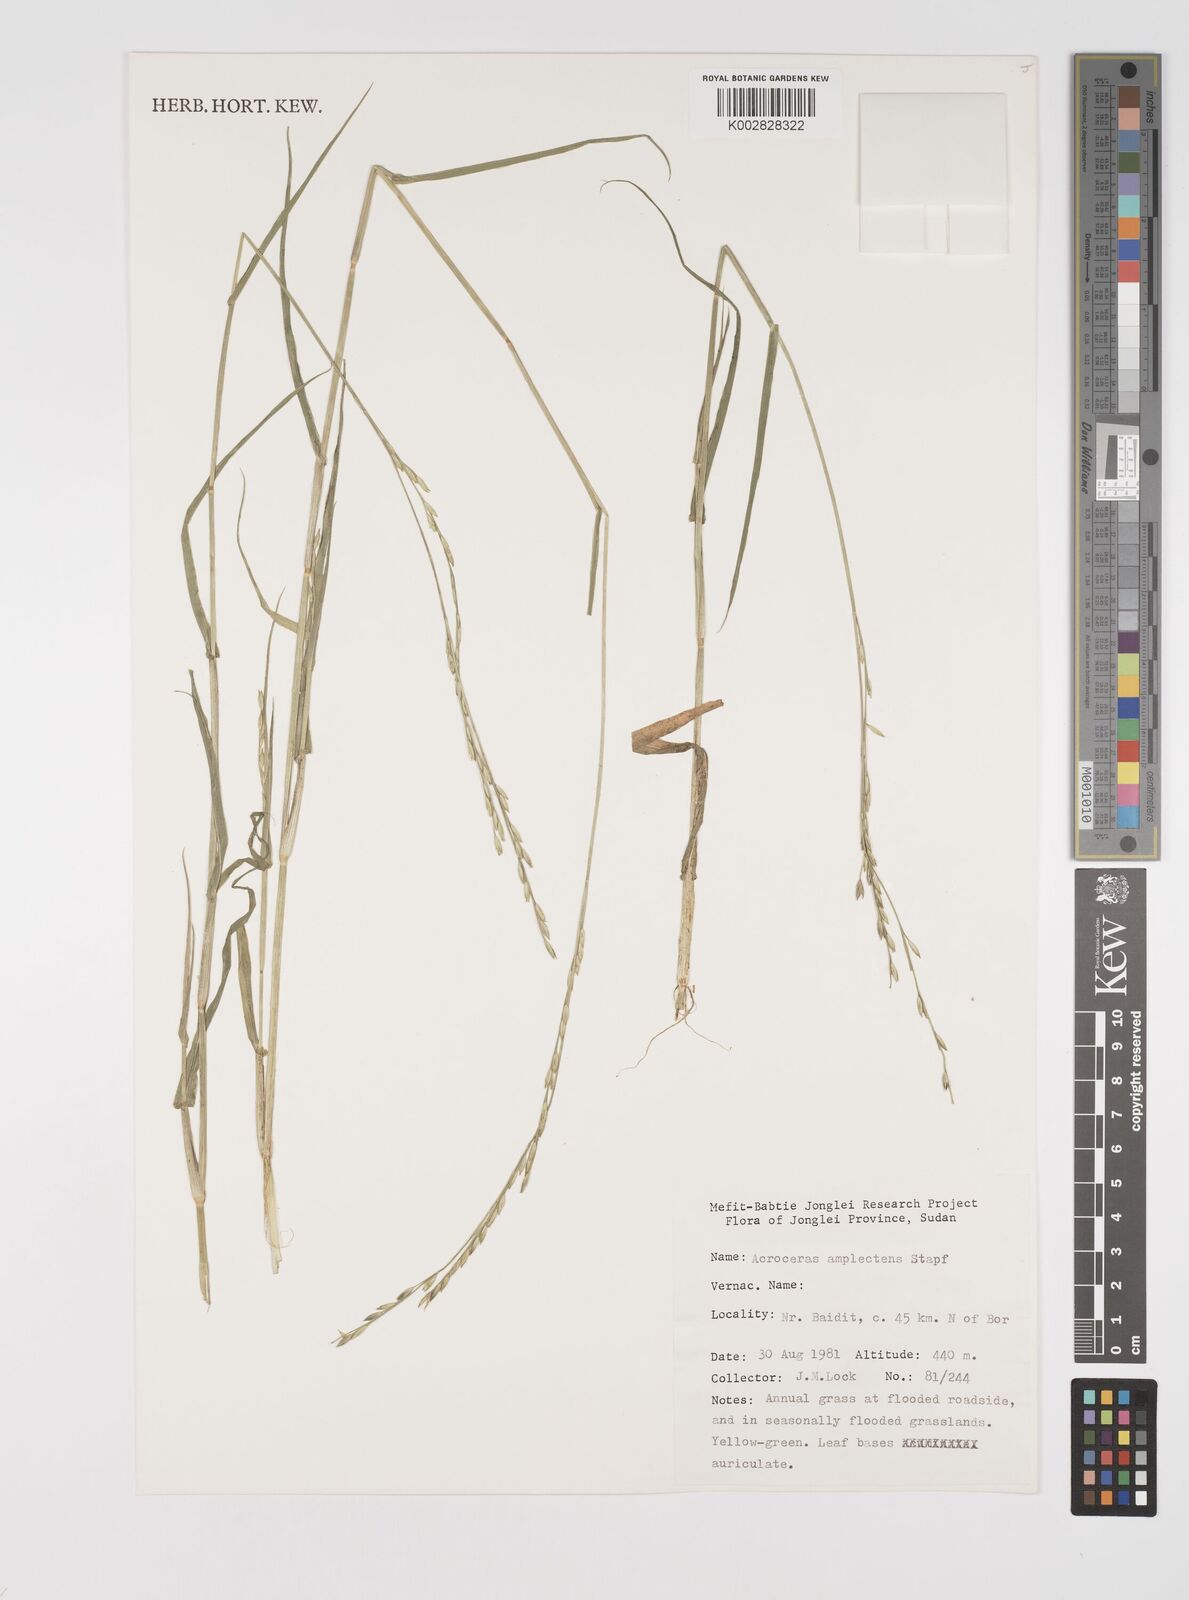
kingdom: Plantae
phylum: Tracheophyta
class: Liliopsida
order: Poales
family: Poaceae
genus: Acroceras
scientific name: Acroceras amplectens
